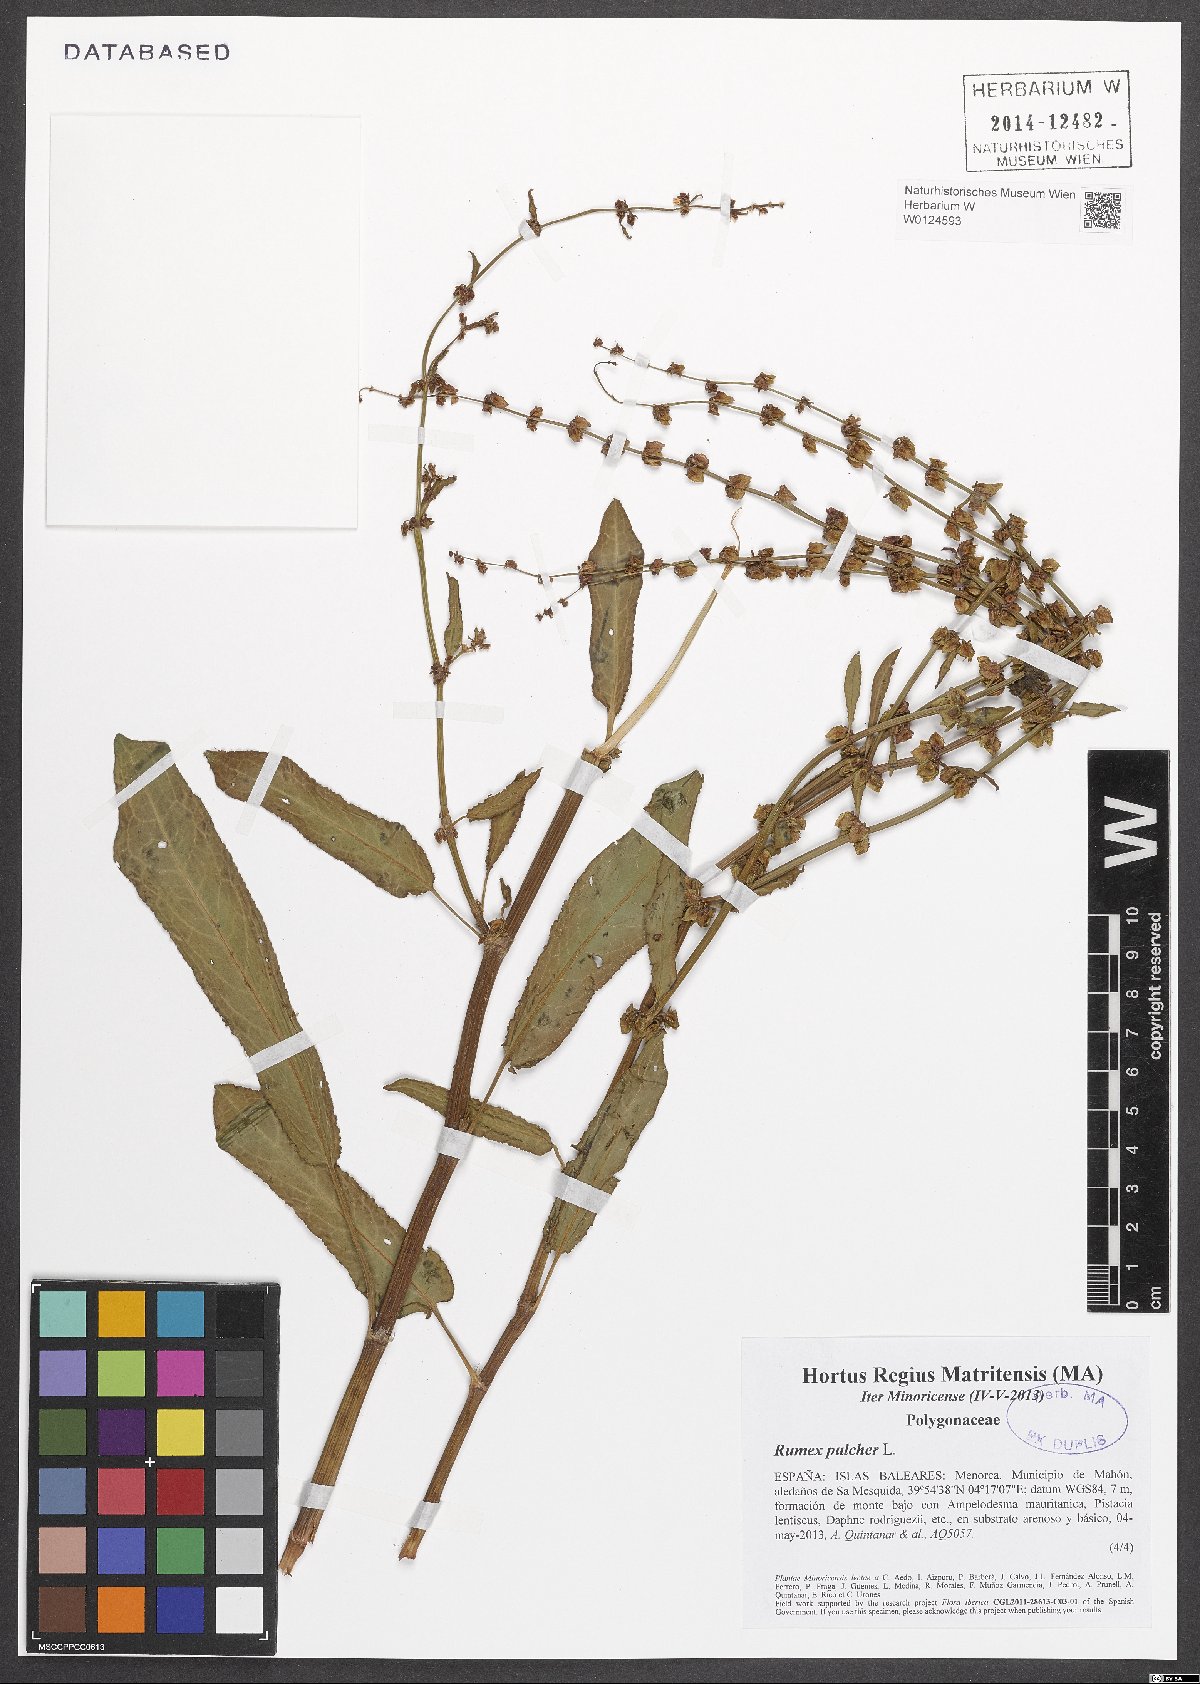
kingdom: Plantae
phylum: Tracheophyta
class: Magnoliopsida
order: Caryophyllales
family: Polygonaceae
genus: Rumex
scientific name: Rumex pulcher
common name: Fiddle dock
